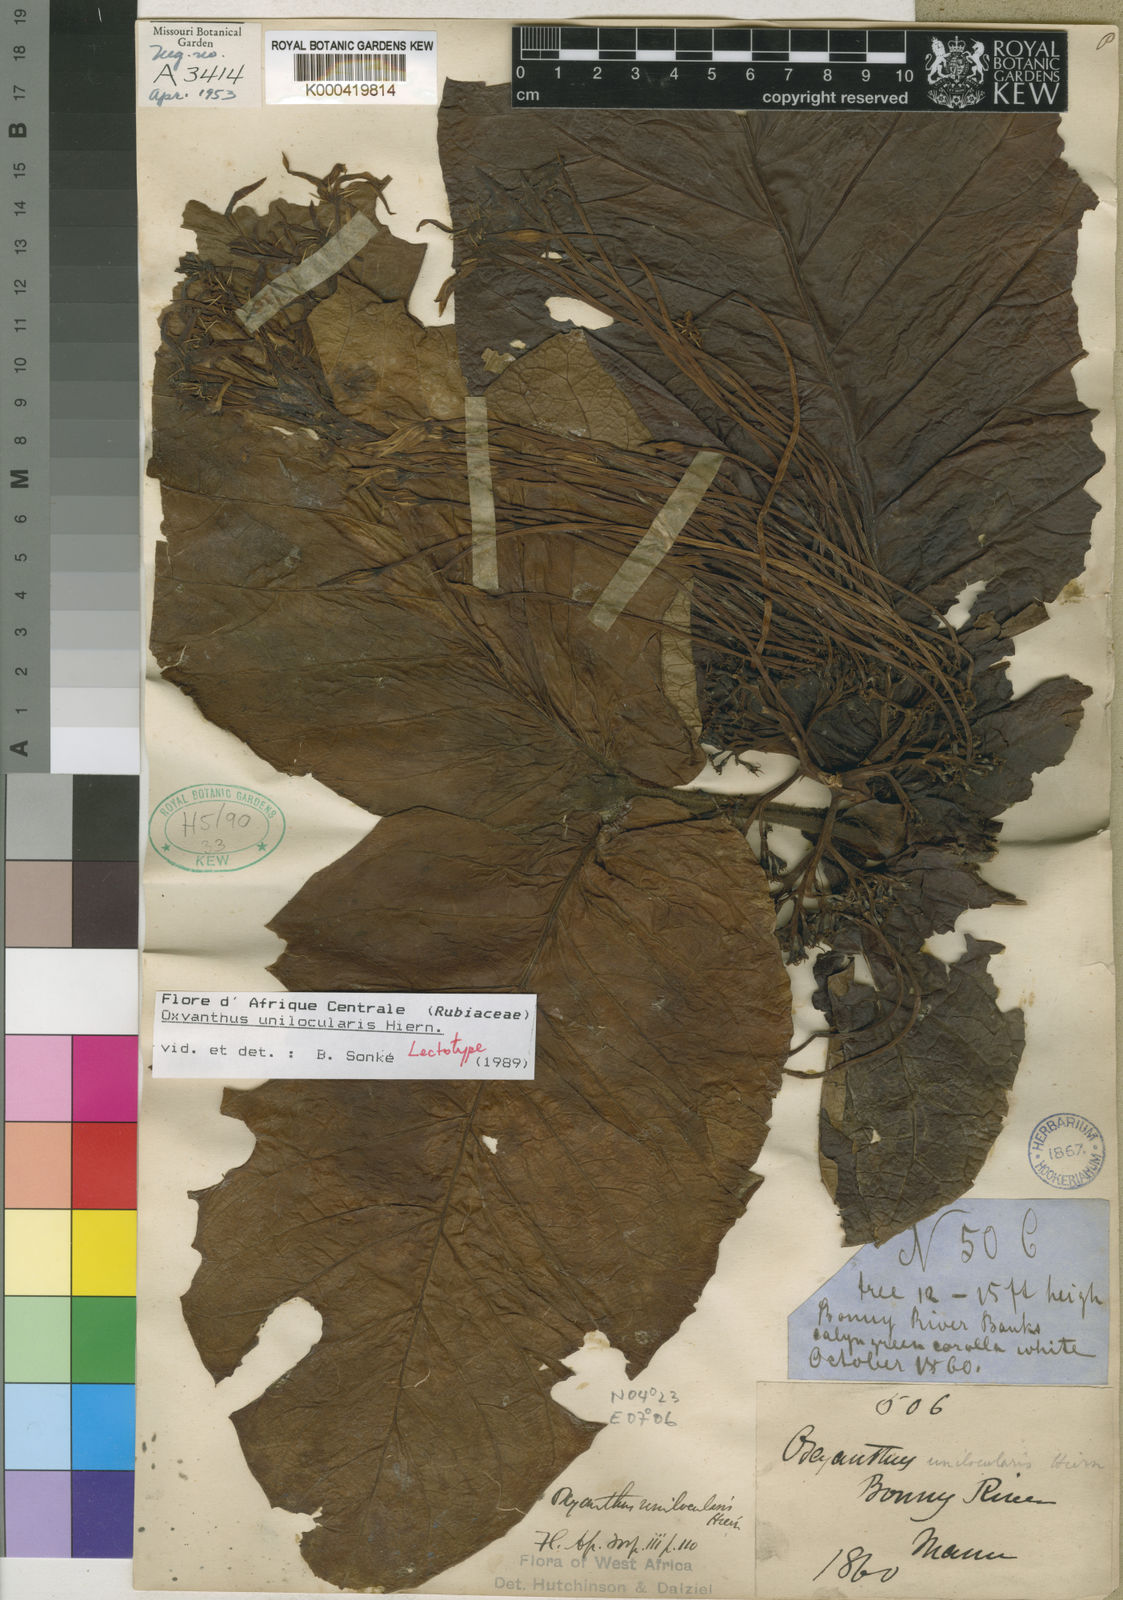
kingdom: Plantae
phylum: Tracheophyta
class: Magnoliopsida
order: Gentianales
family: Rubiaceae
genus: Oxyanthus
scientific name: Oxyanthus unilocularis
